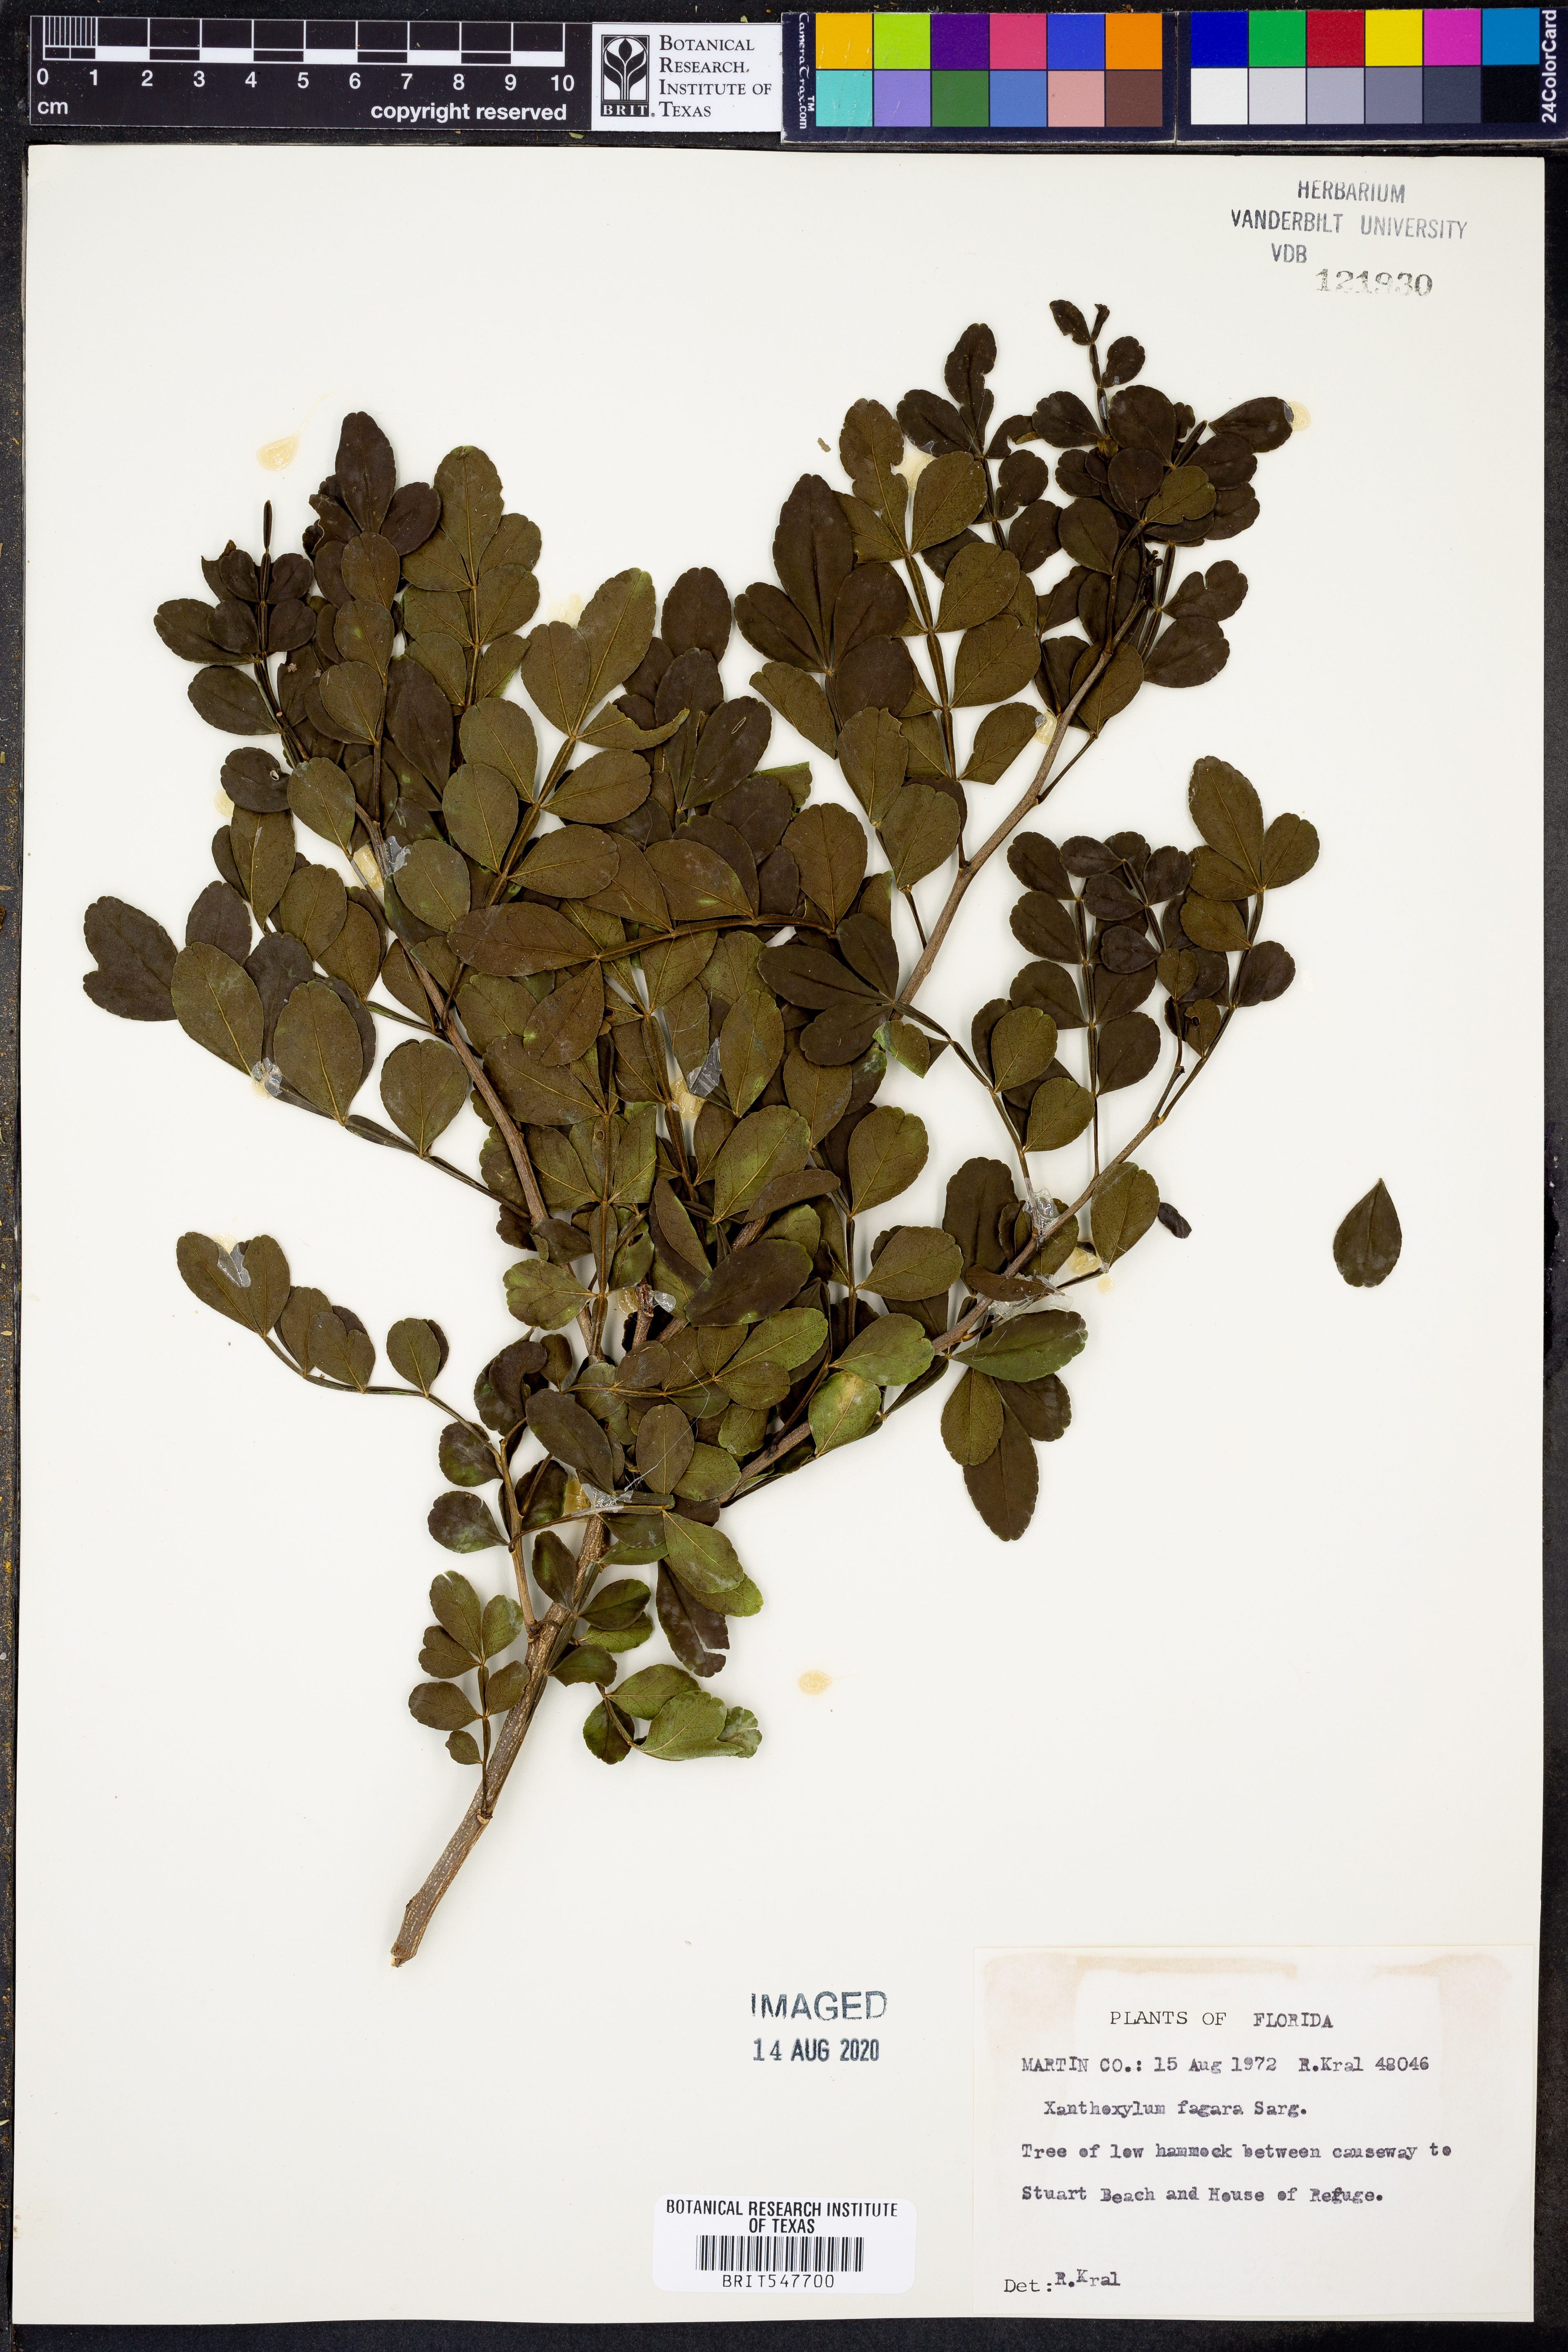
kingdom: Plantae
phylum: Tracheophyta
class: Magnoliopsida
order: Sapindales
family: Rutaceae
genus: Zanthoxylum
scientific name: Zanthoxylum fagara
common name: Lime prickly-ash
